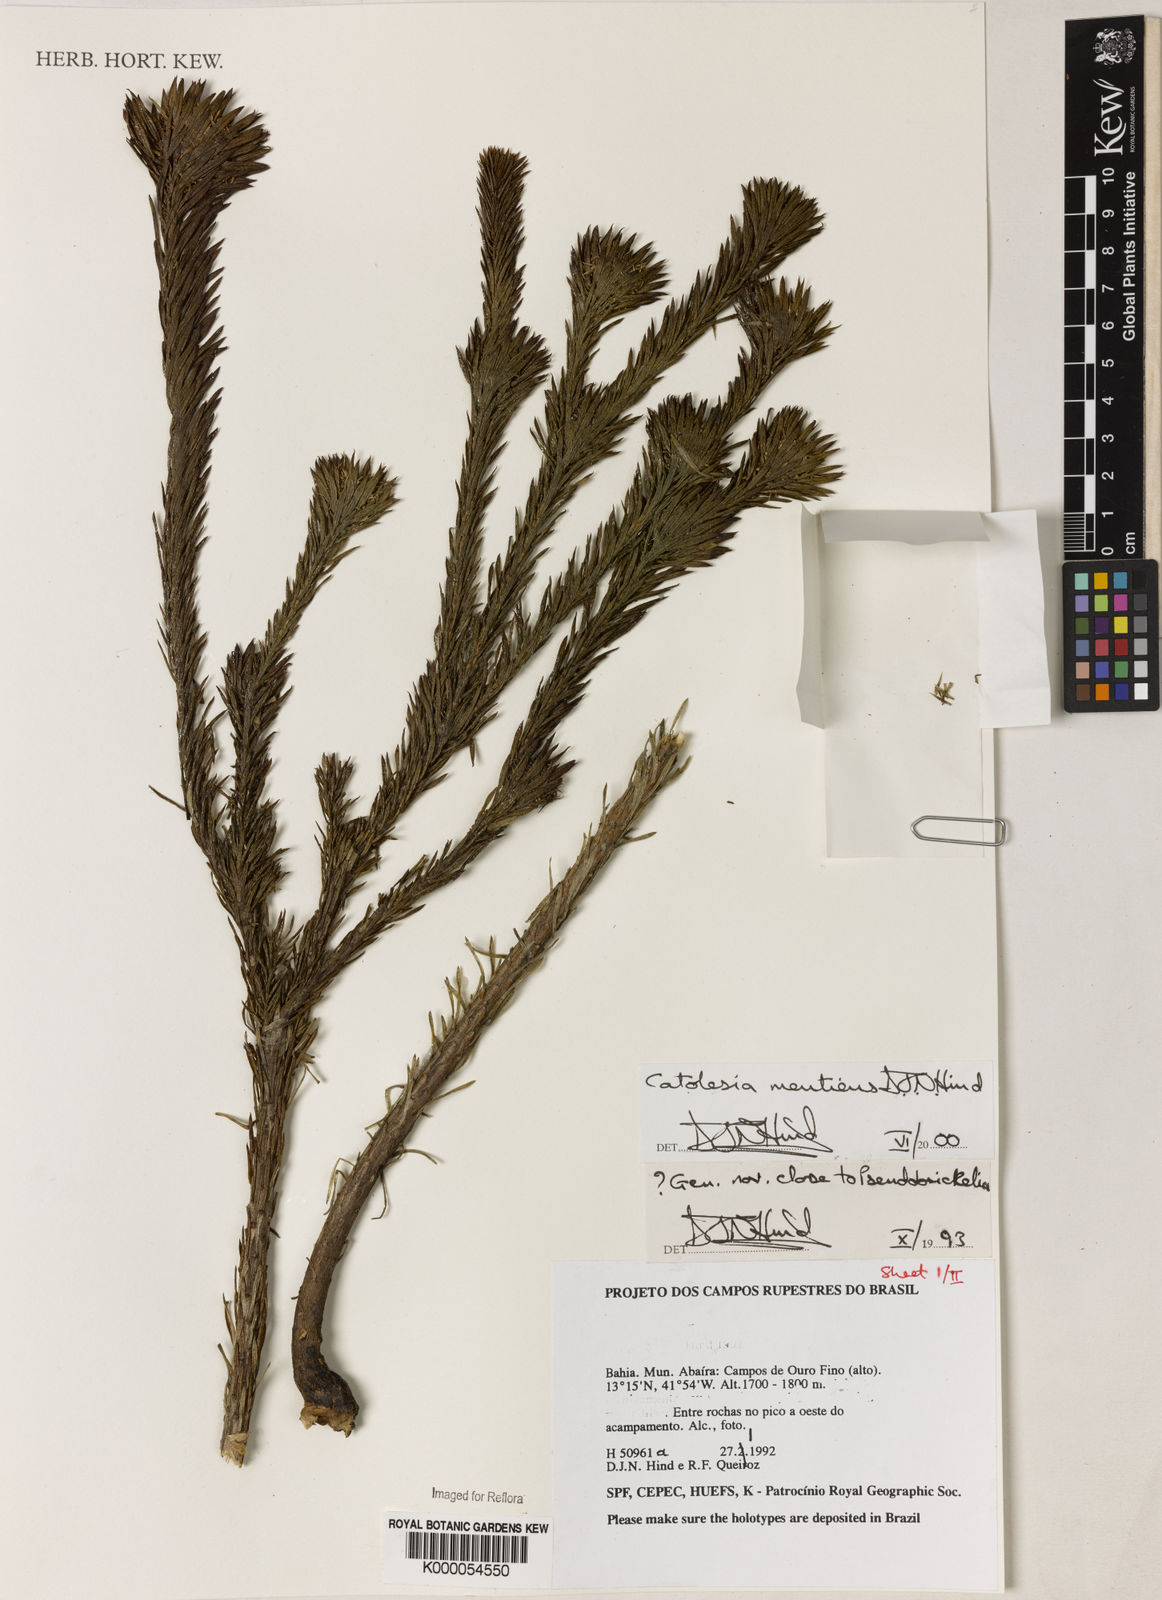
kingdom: Plantae
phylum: Tracheophyta
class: Magnoliopsida
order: Asterales
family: Asteraceae
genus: Catolesia
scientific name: Catolesia mentiens
